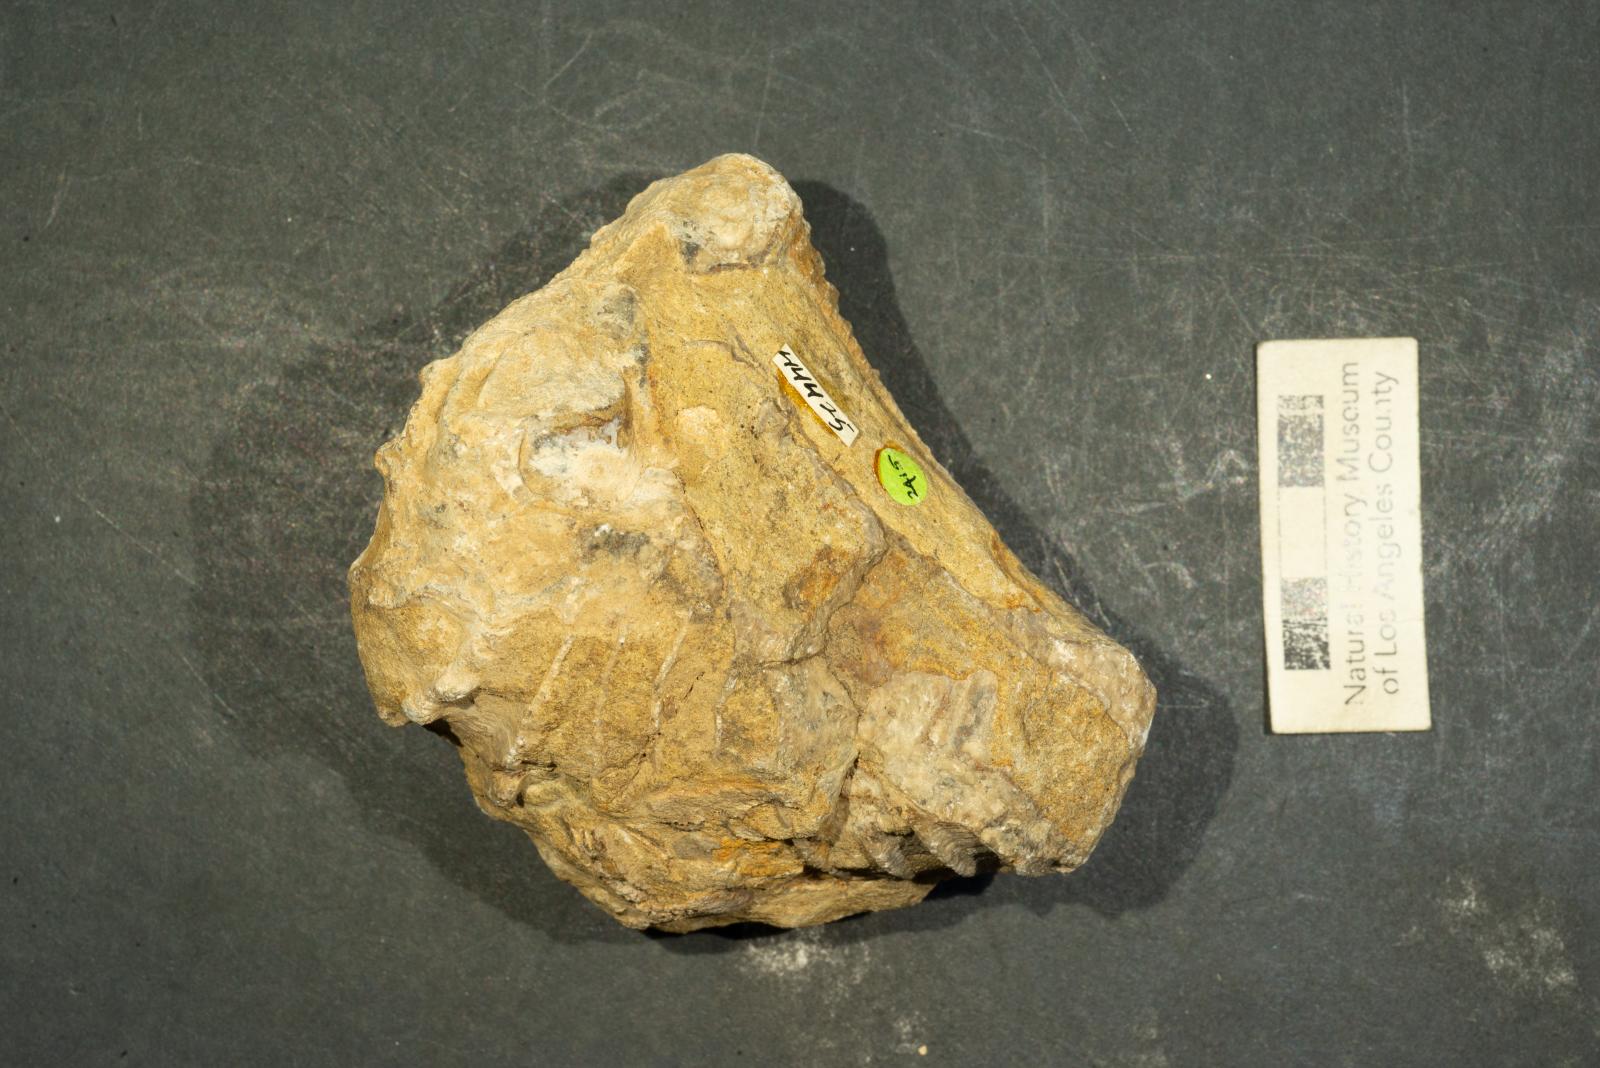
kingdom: Animalia
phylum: Mollusca
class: Bivalvia
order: Trigoniida
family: Pterotrigoniidae
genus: Notoscabrotrigonia
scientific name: Notoscabrotrigonia evansana
